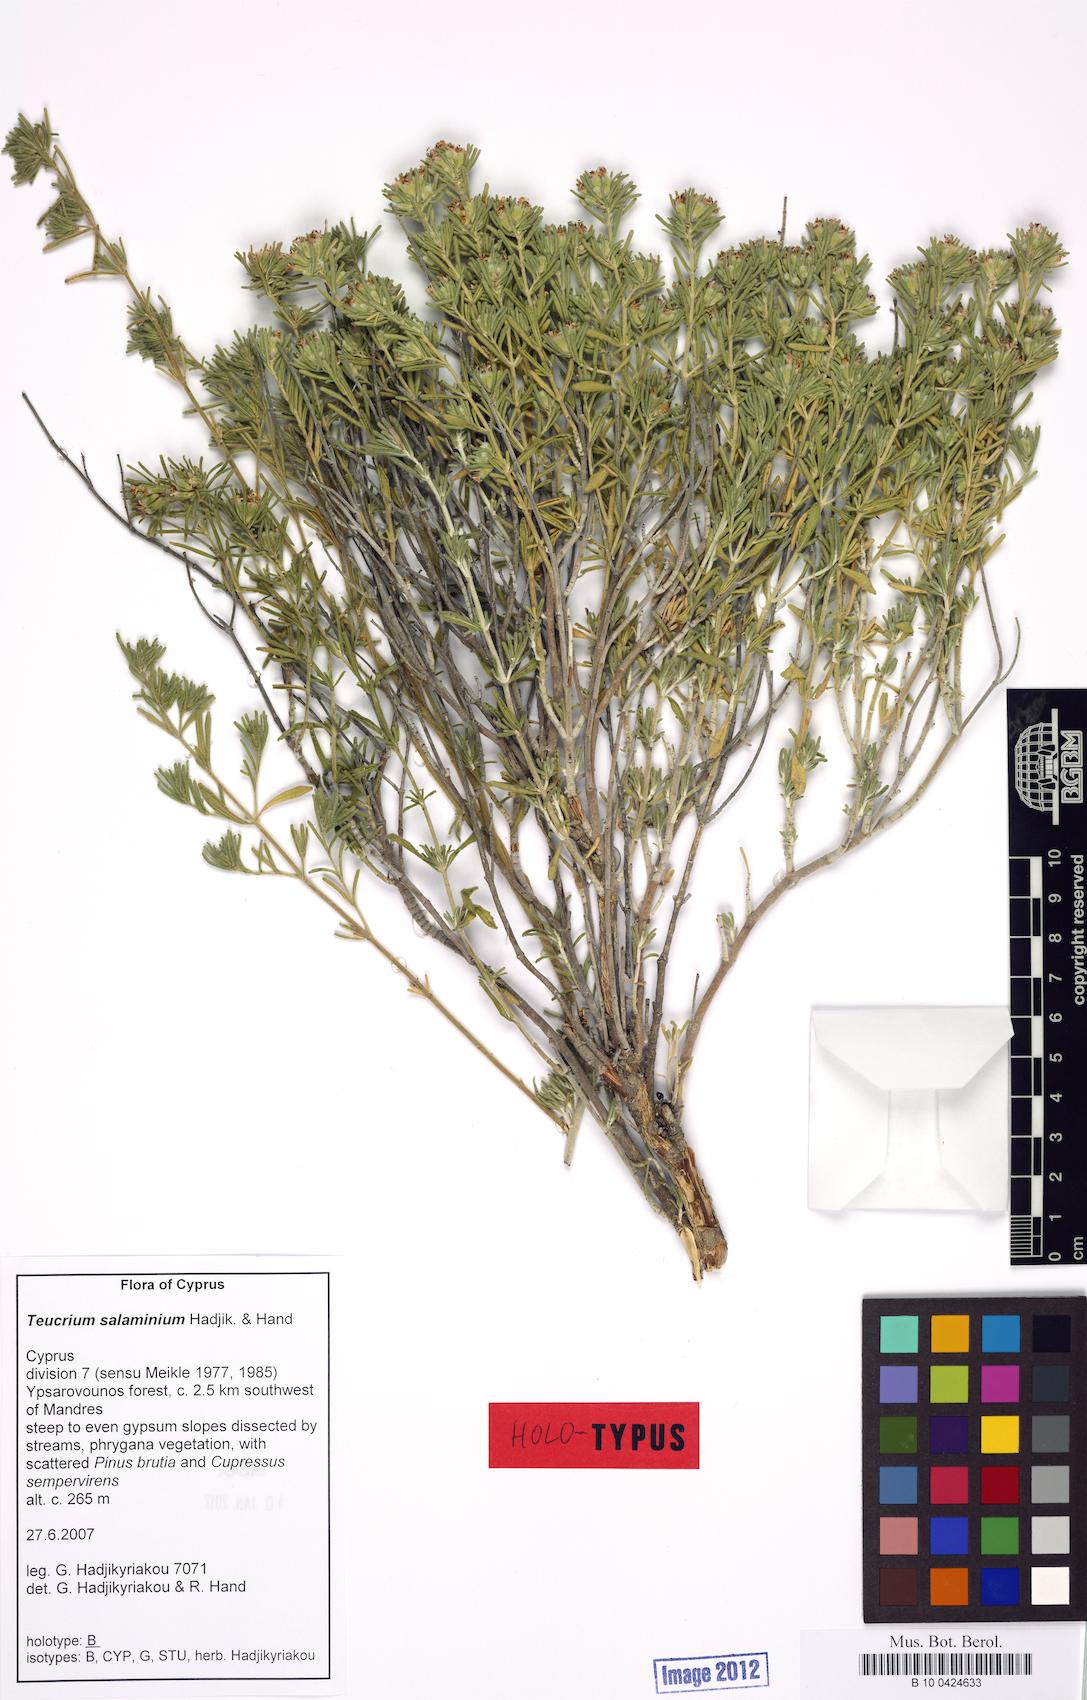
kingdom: Plantae
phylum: Tracheophyta
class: Magnoliopsida
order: Lamiales
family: Lamiaceae
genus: Teucrium
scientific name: Teucrium salaminium
